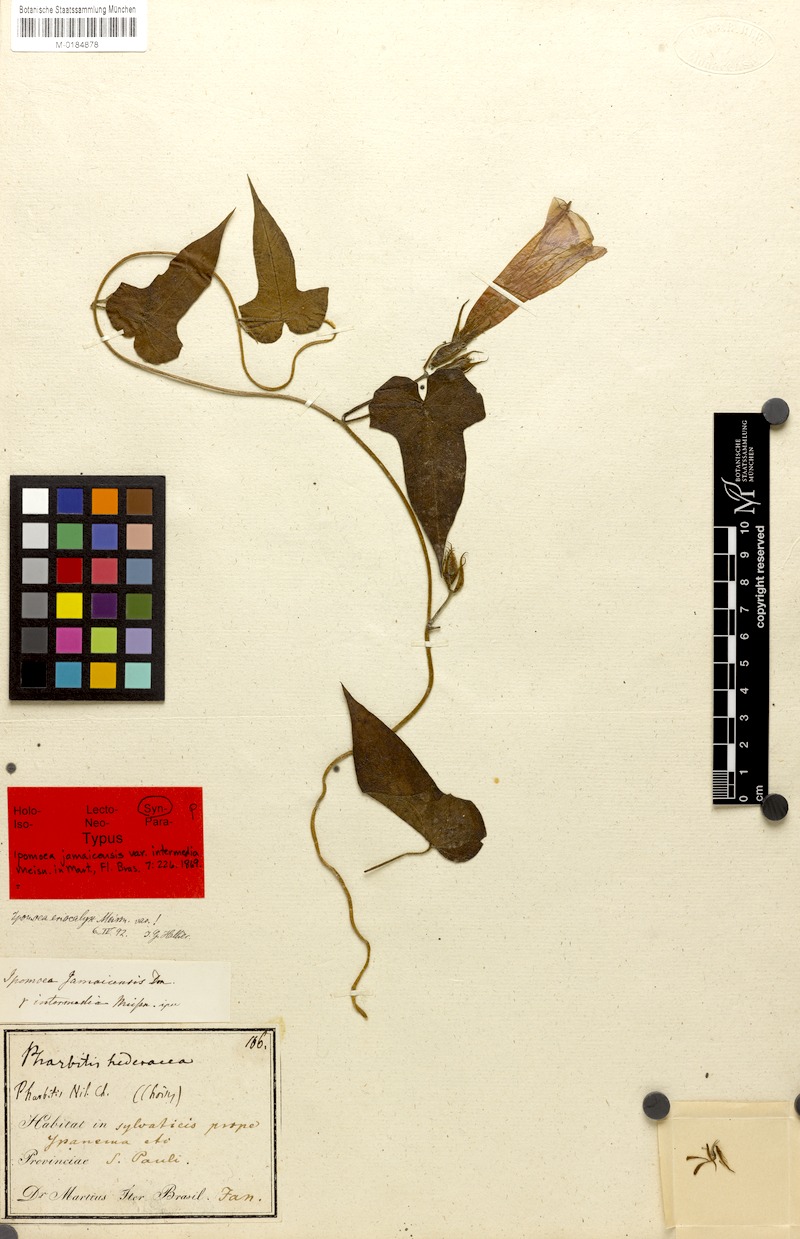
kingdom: Plantae
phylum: Tracheophyta
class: Magnoliopsida
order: Solanales
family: Convolvulaceae
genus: Ipomoea
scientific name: Ipomoea eriocalyx
